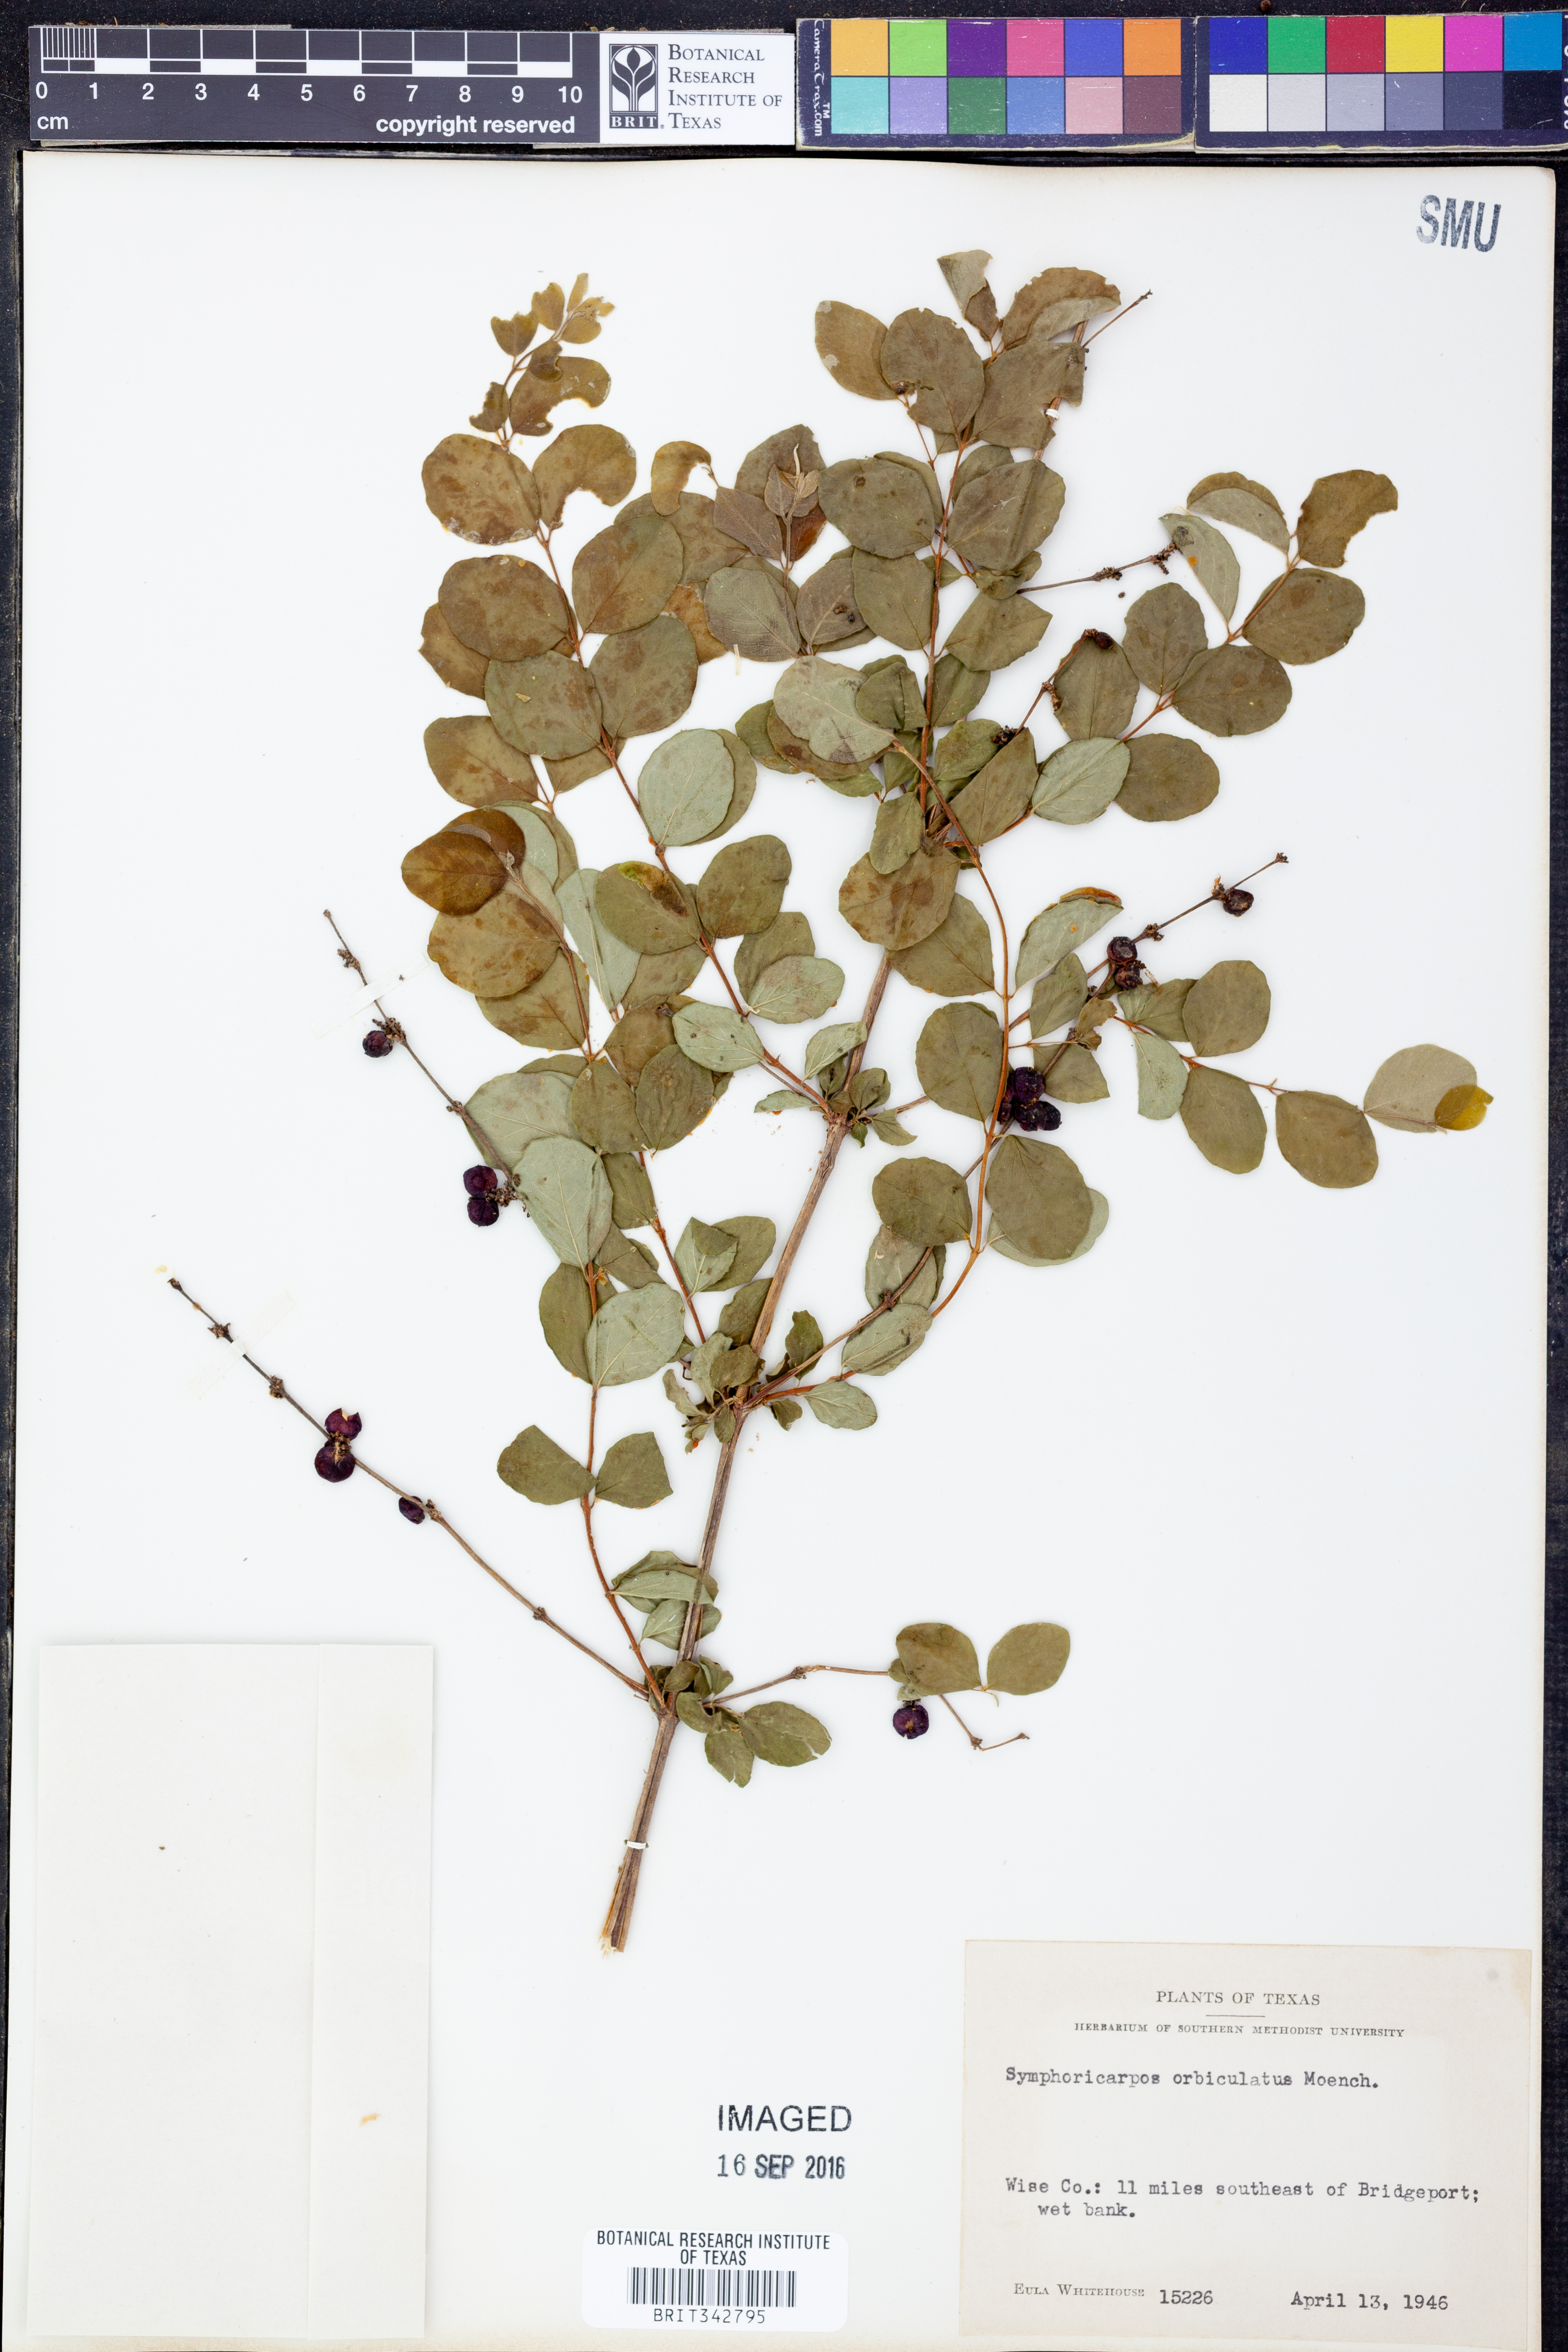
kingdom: Plantae
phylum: Tracheophyta
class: Magnoliopsida
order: Dipsacales
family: Caprifoliaceae
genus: Symphoricarpos
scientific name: Symphoricarpos orbiculatus
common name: Coralberry
